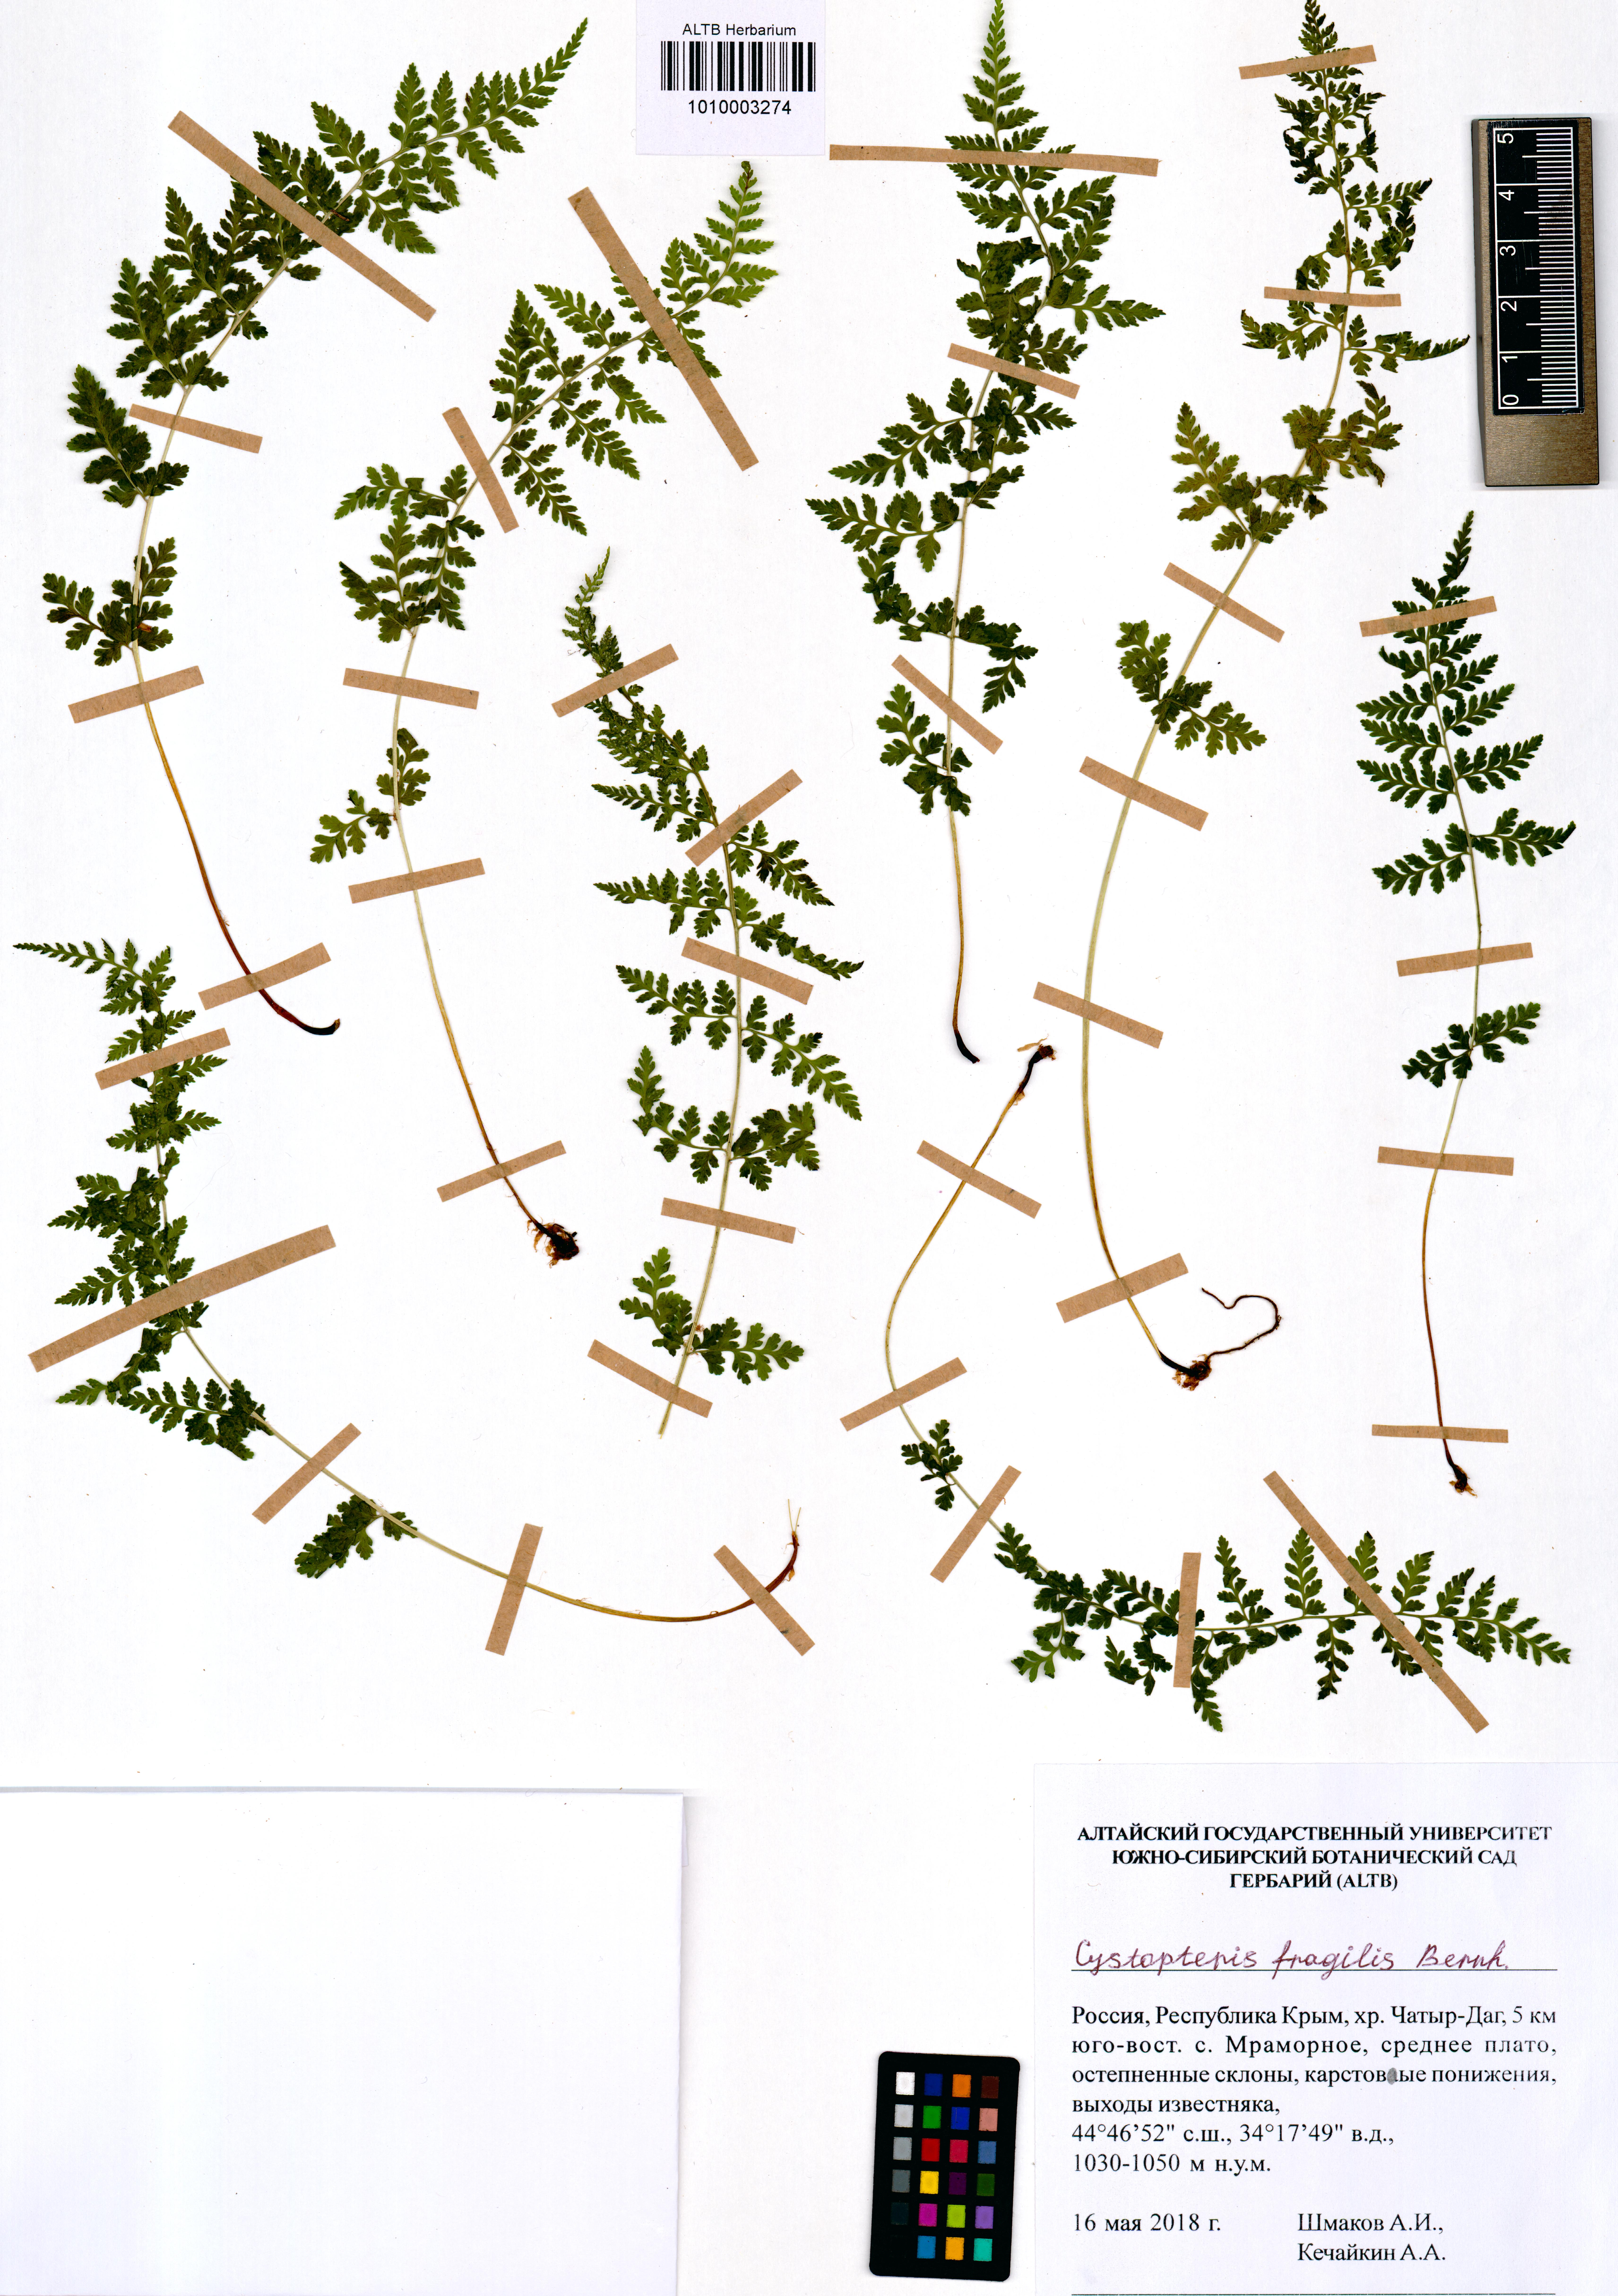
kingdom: Plantae
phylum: Tracheophyta
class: Polypodiopsida
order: Polypodiales
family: Cystopteridaceae
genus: Cystopteris
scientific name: Cystopteris fragilis
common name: Brittle bladder fern
